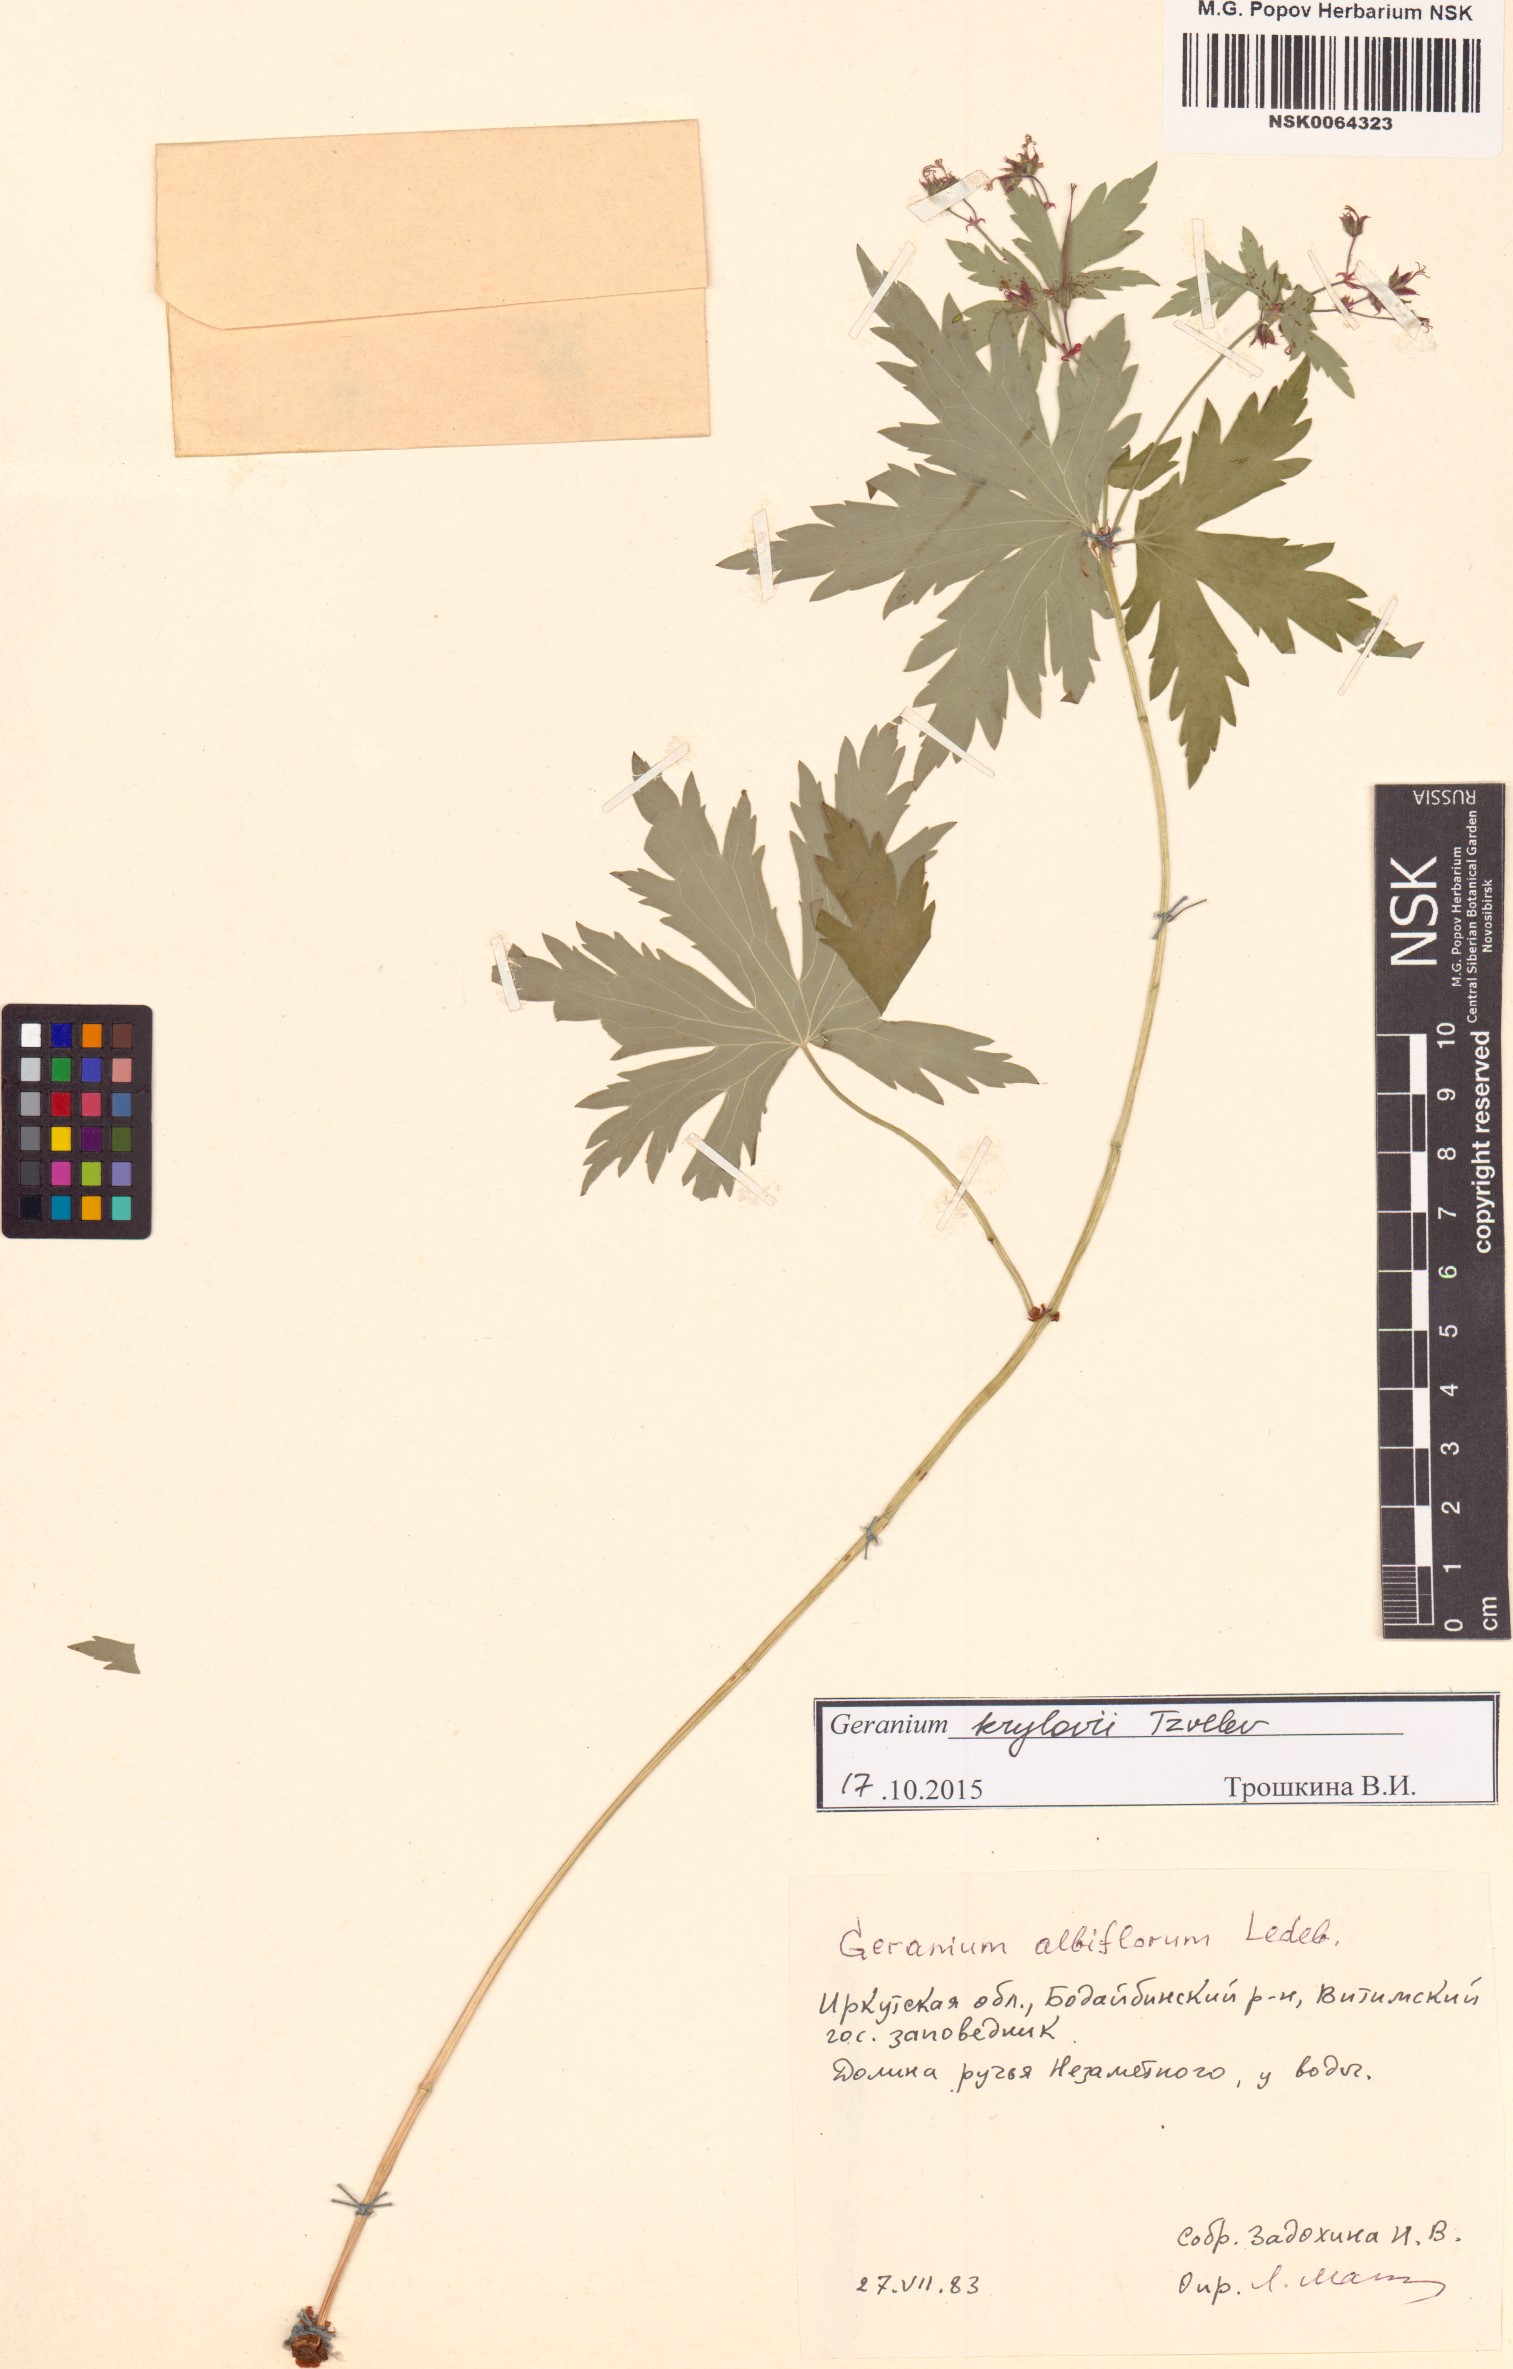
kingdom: Plantae
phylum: Tracheophyta
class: Magnoliopsida
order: Geraniales
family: Geraniaceae
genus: Geranium
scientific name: Geranium sylvaticum
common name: Wood crane's-bill
